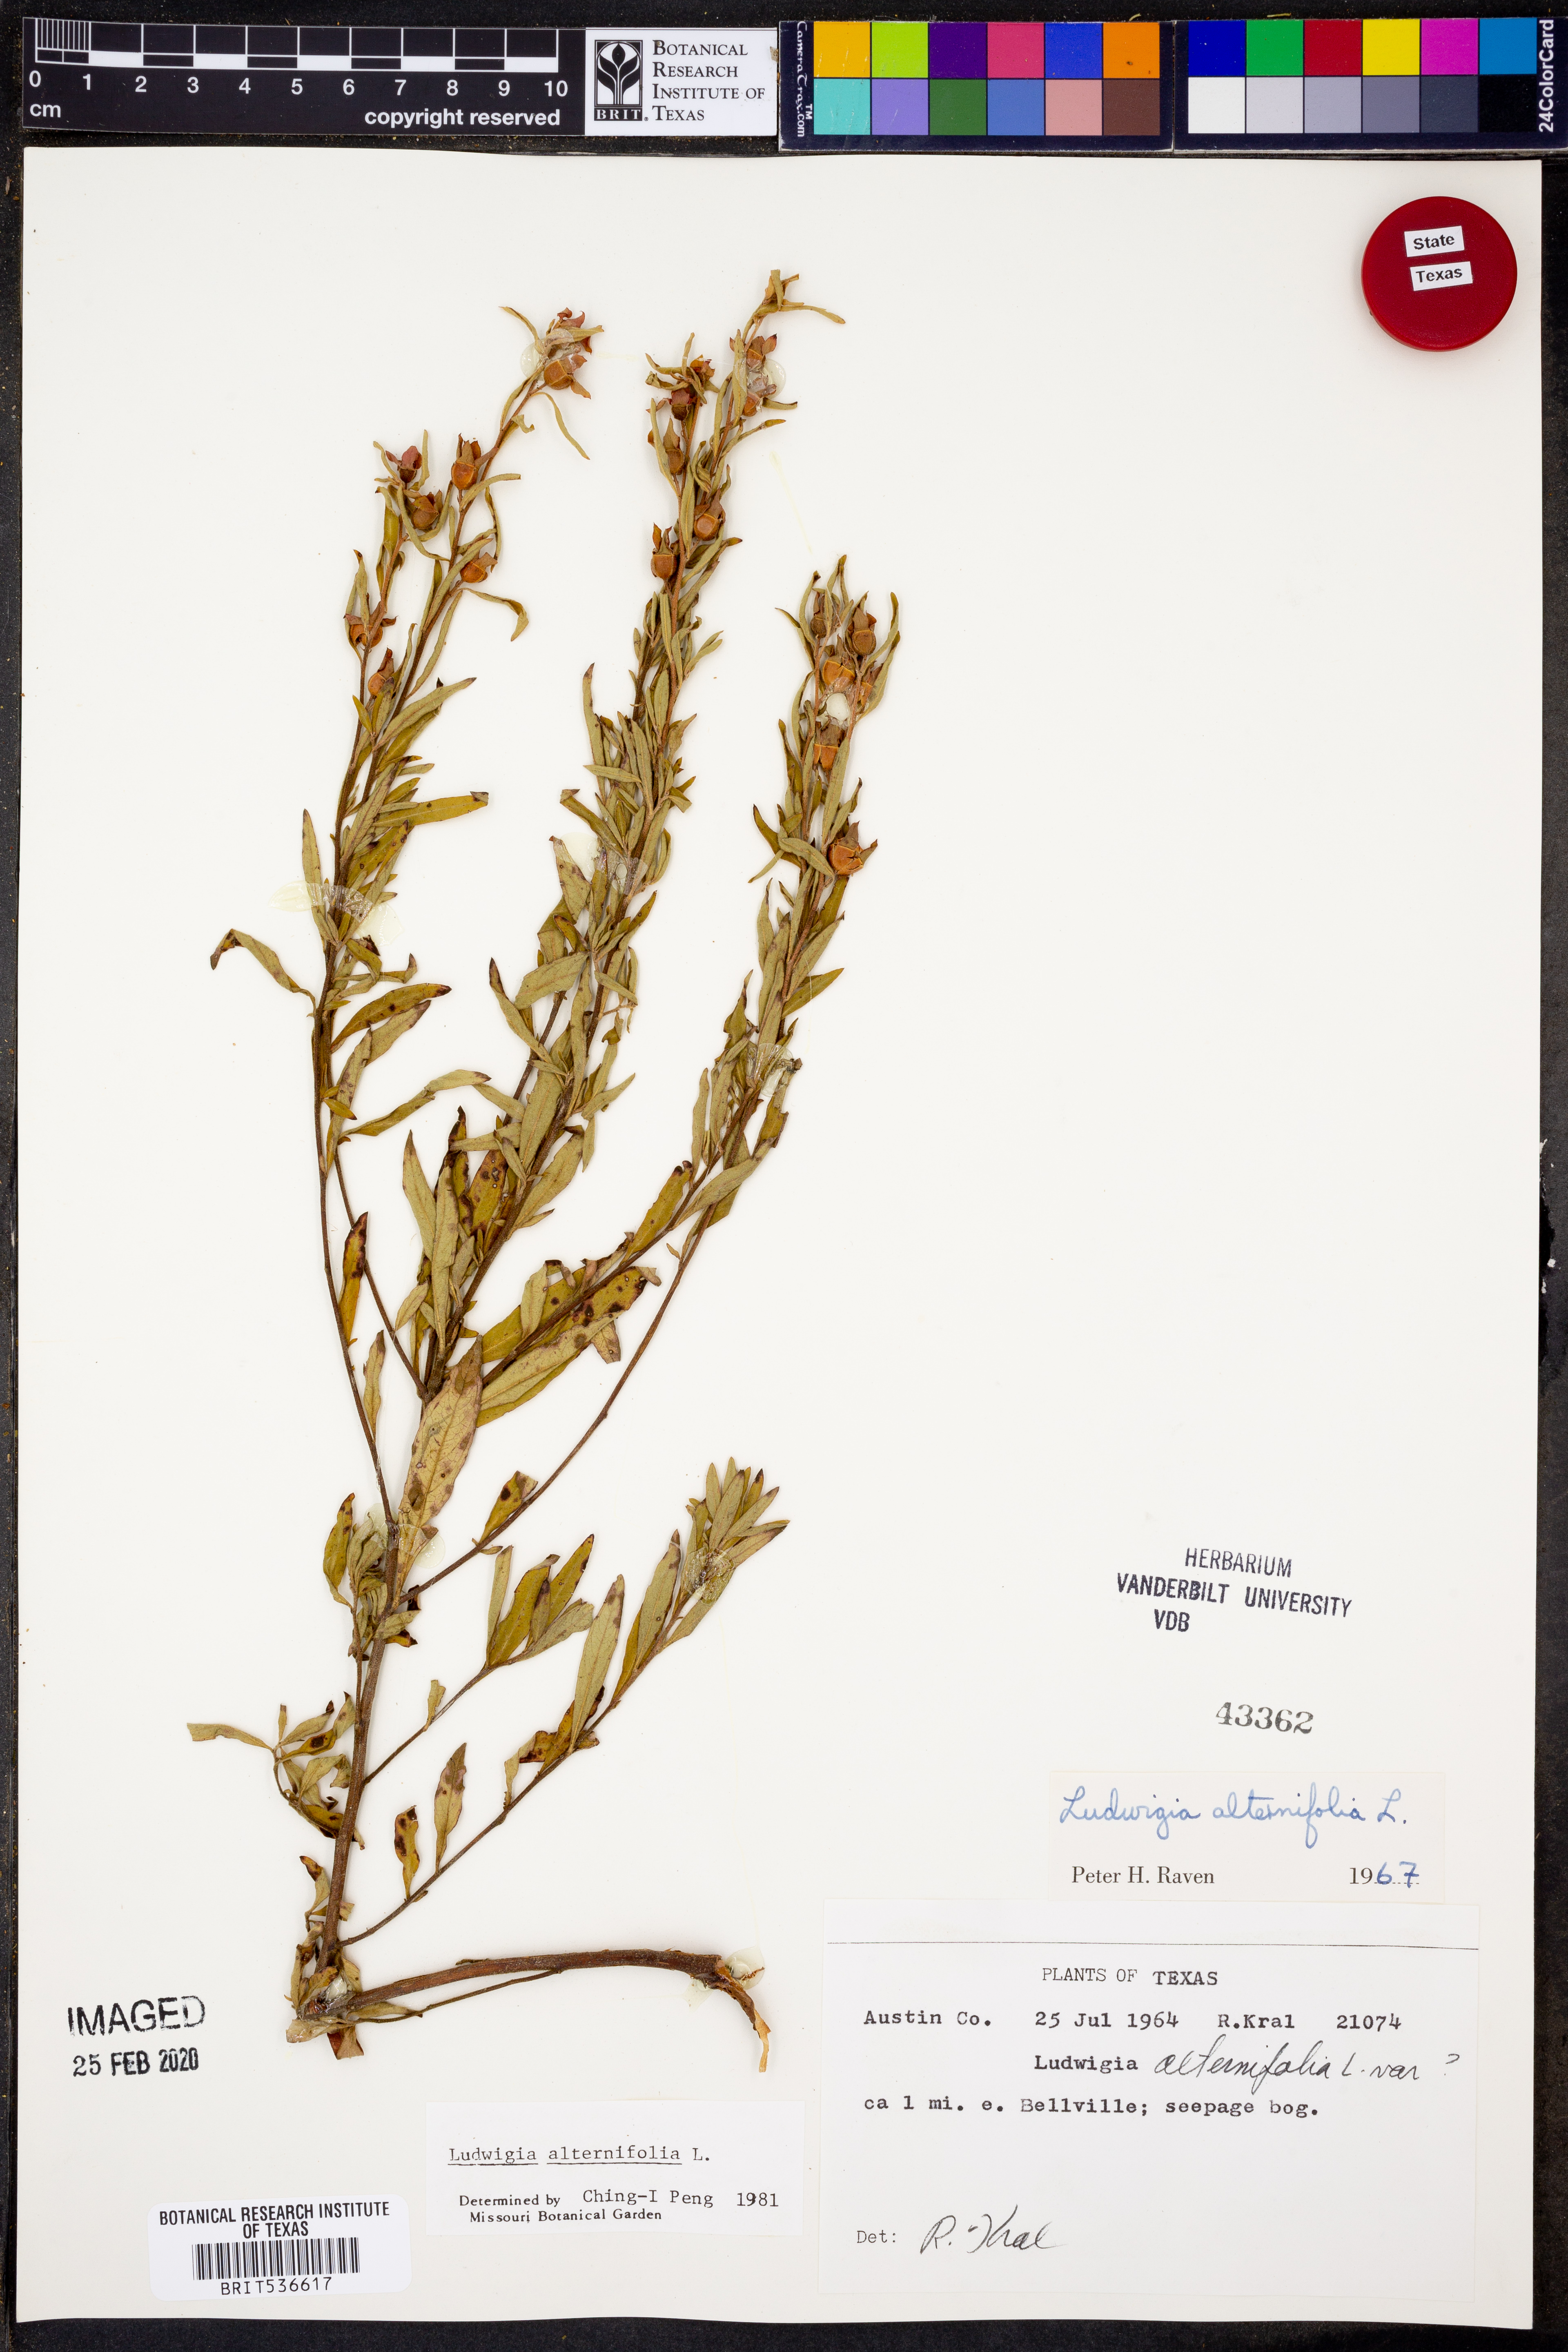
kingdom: Plantae
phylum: Tracheophyta
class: Magnoliopsida
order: Myrtales
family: Onagraceae
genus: Ludwigia
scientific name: Ludwigia alternifolia
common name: Rattlebox
